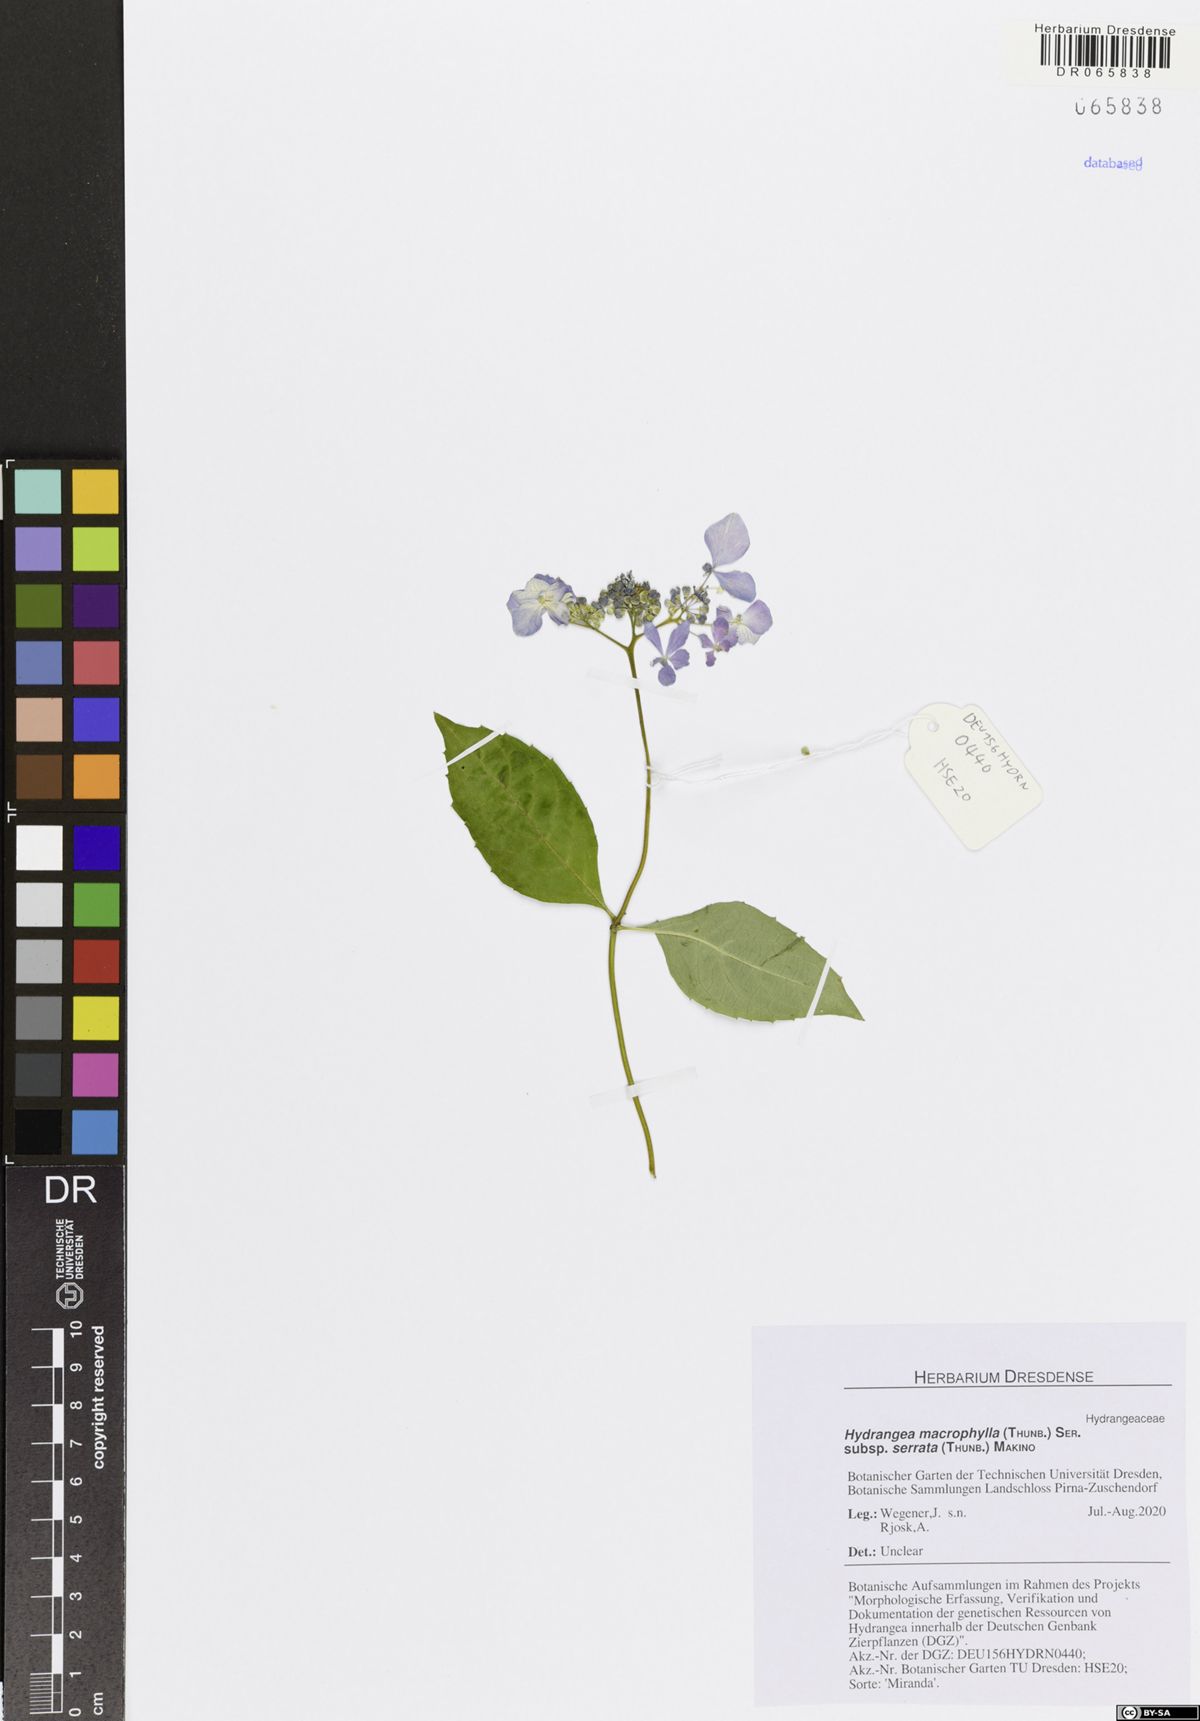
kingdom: Plantae
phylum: Tracheophyta
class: Magnoliopsida
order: Cornales
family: Hydrangeaceae
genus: Hydrangea
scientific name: Hydrangea serrata
